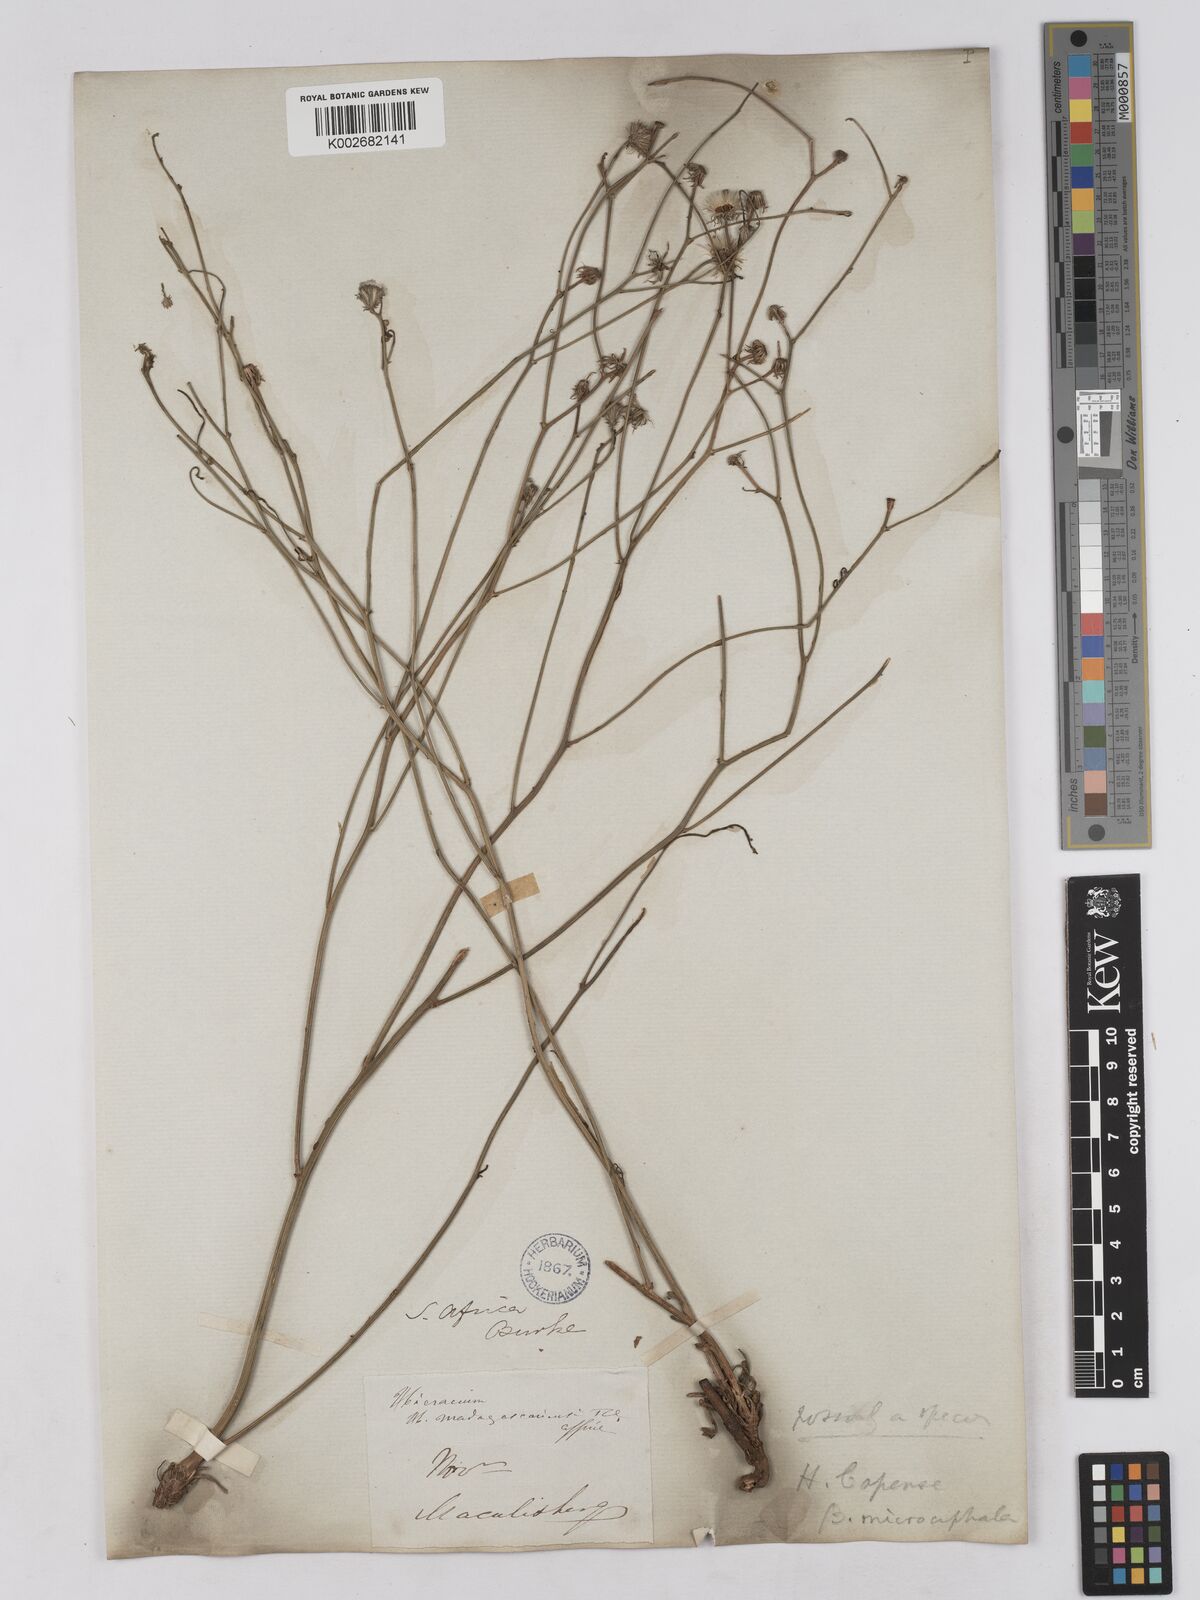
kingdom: Plantae
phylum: Tracheophyta
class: Magnoliopsida
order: Asterales
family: Asteraceae
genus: Tolpis
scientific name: Tolpis capensis
